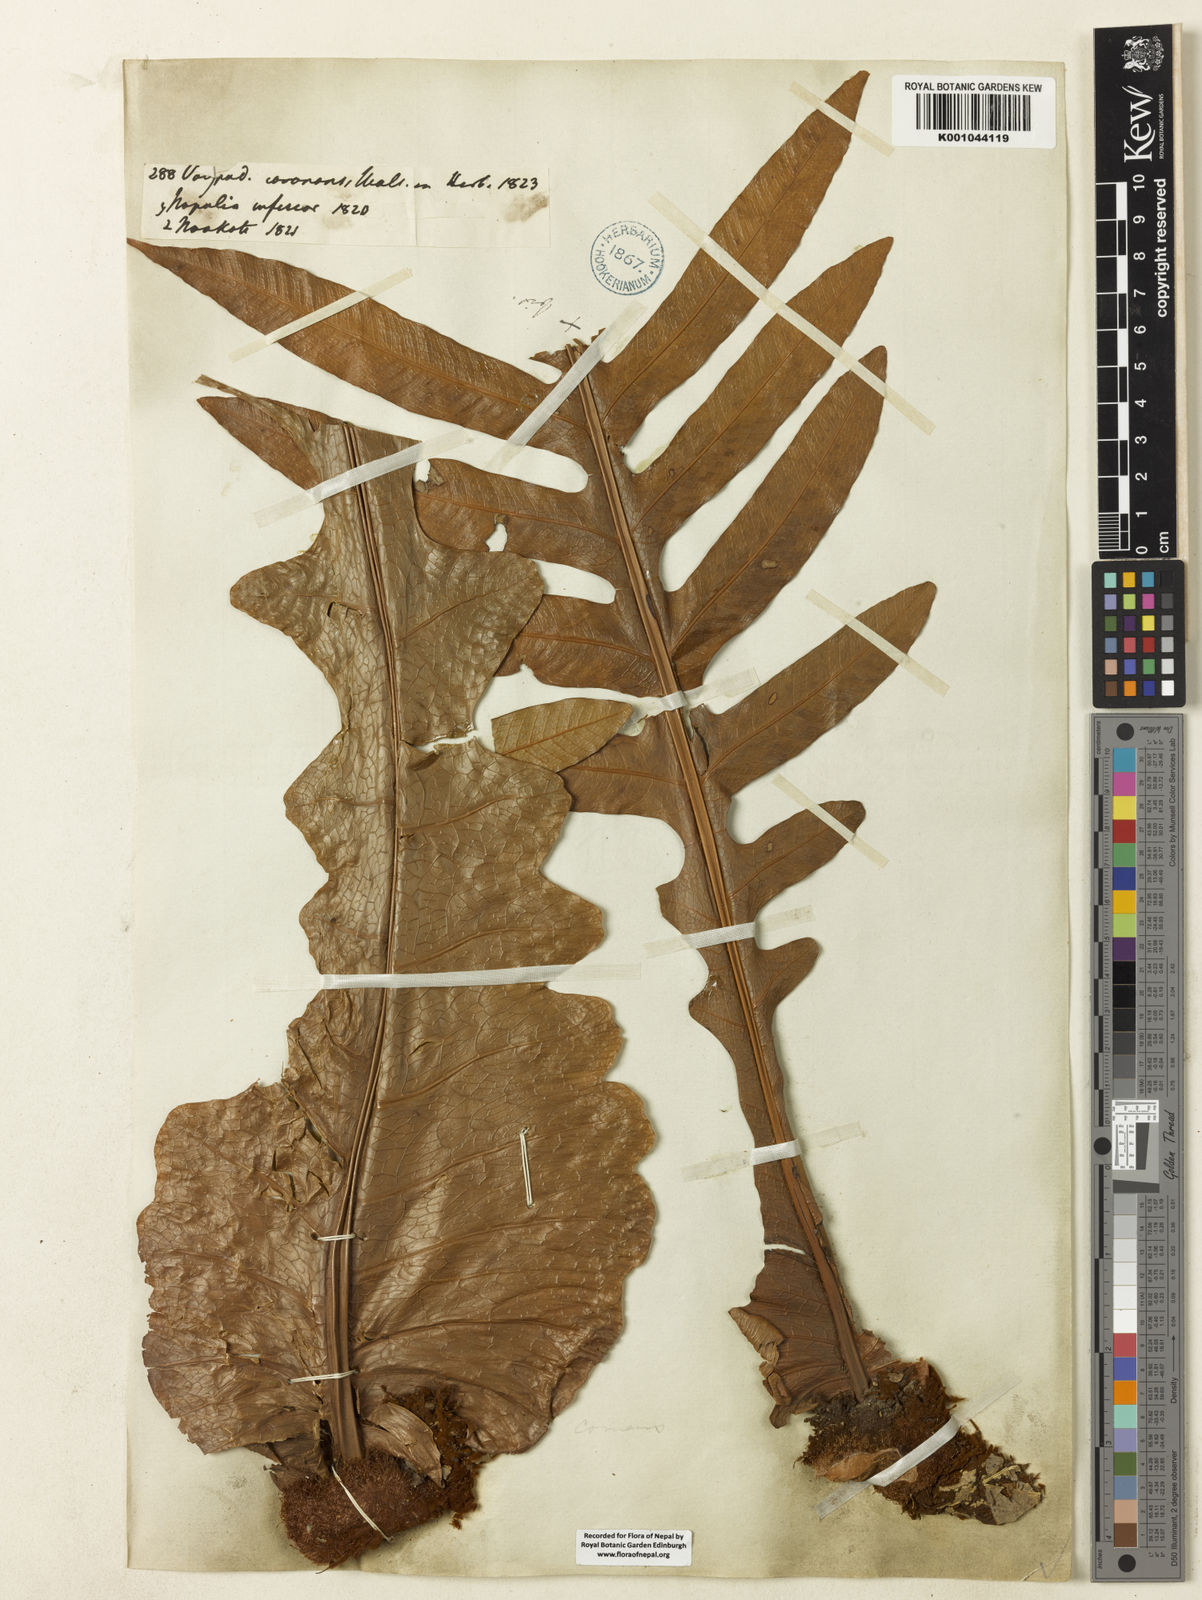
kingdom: Plantae
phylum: Tracheophyta
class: Polypodiopsida
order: Polypodiales
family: Polypodiaceae
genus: Drynaria
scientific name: Drynaria coronans
